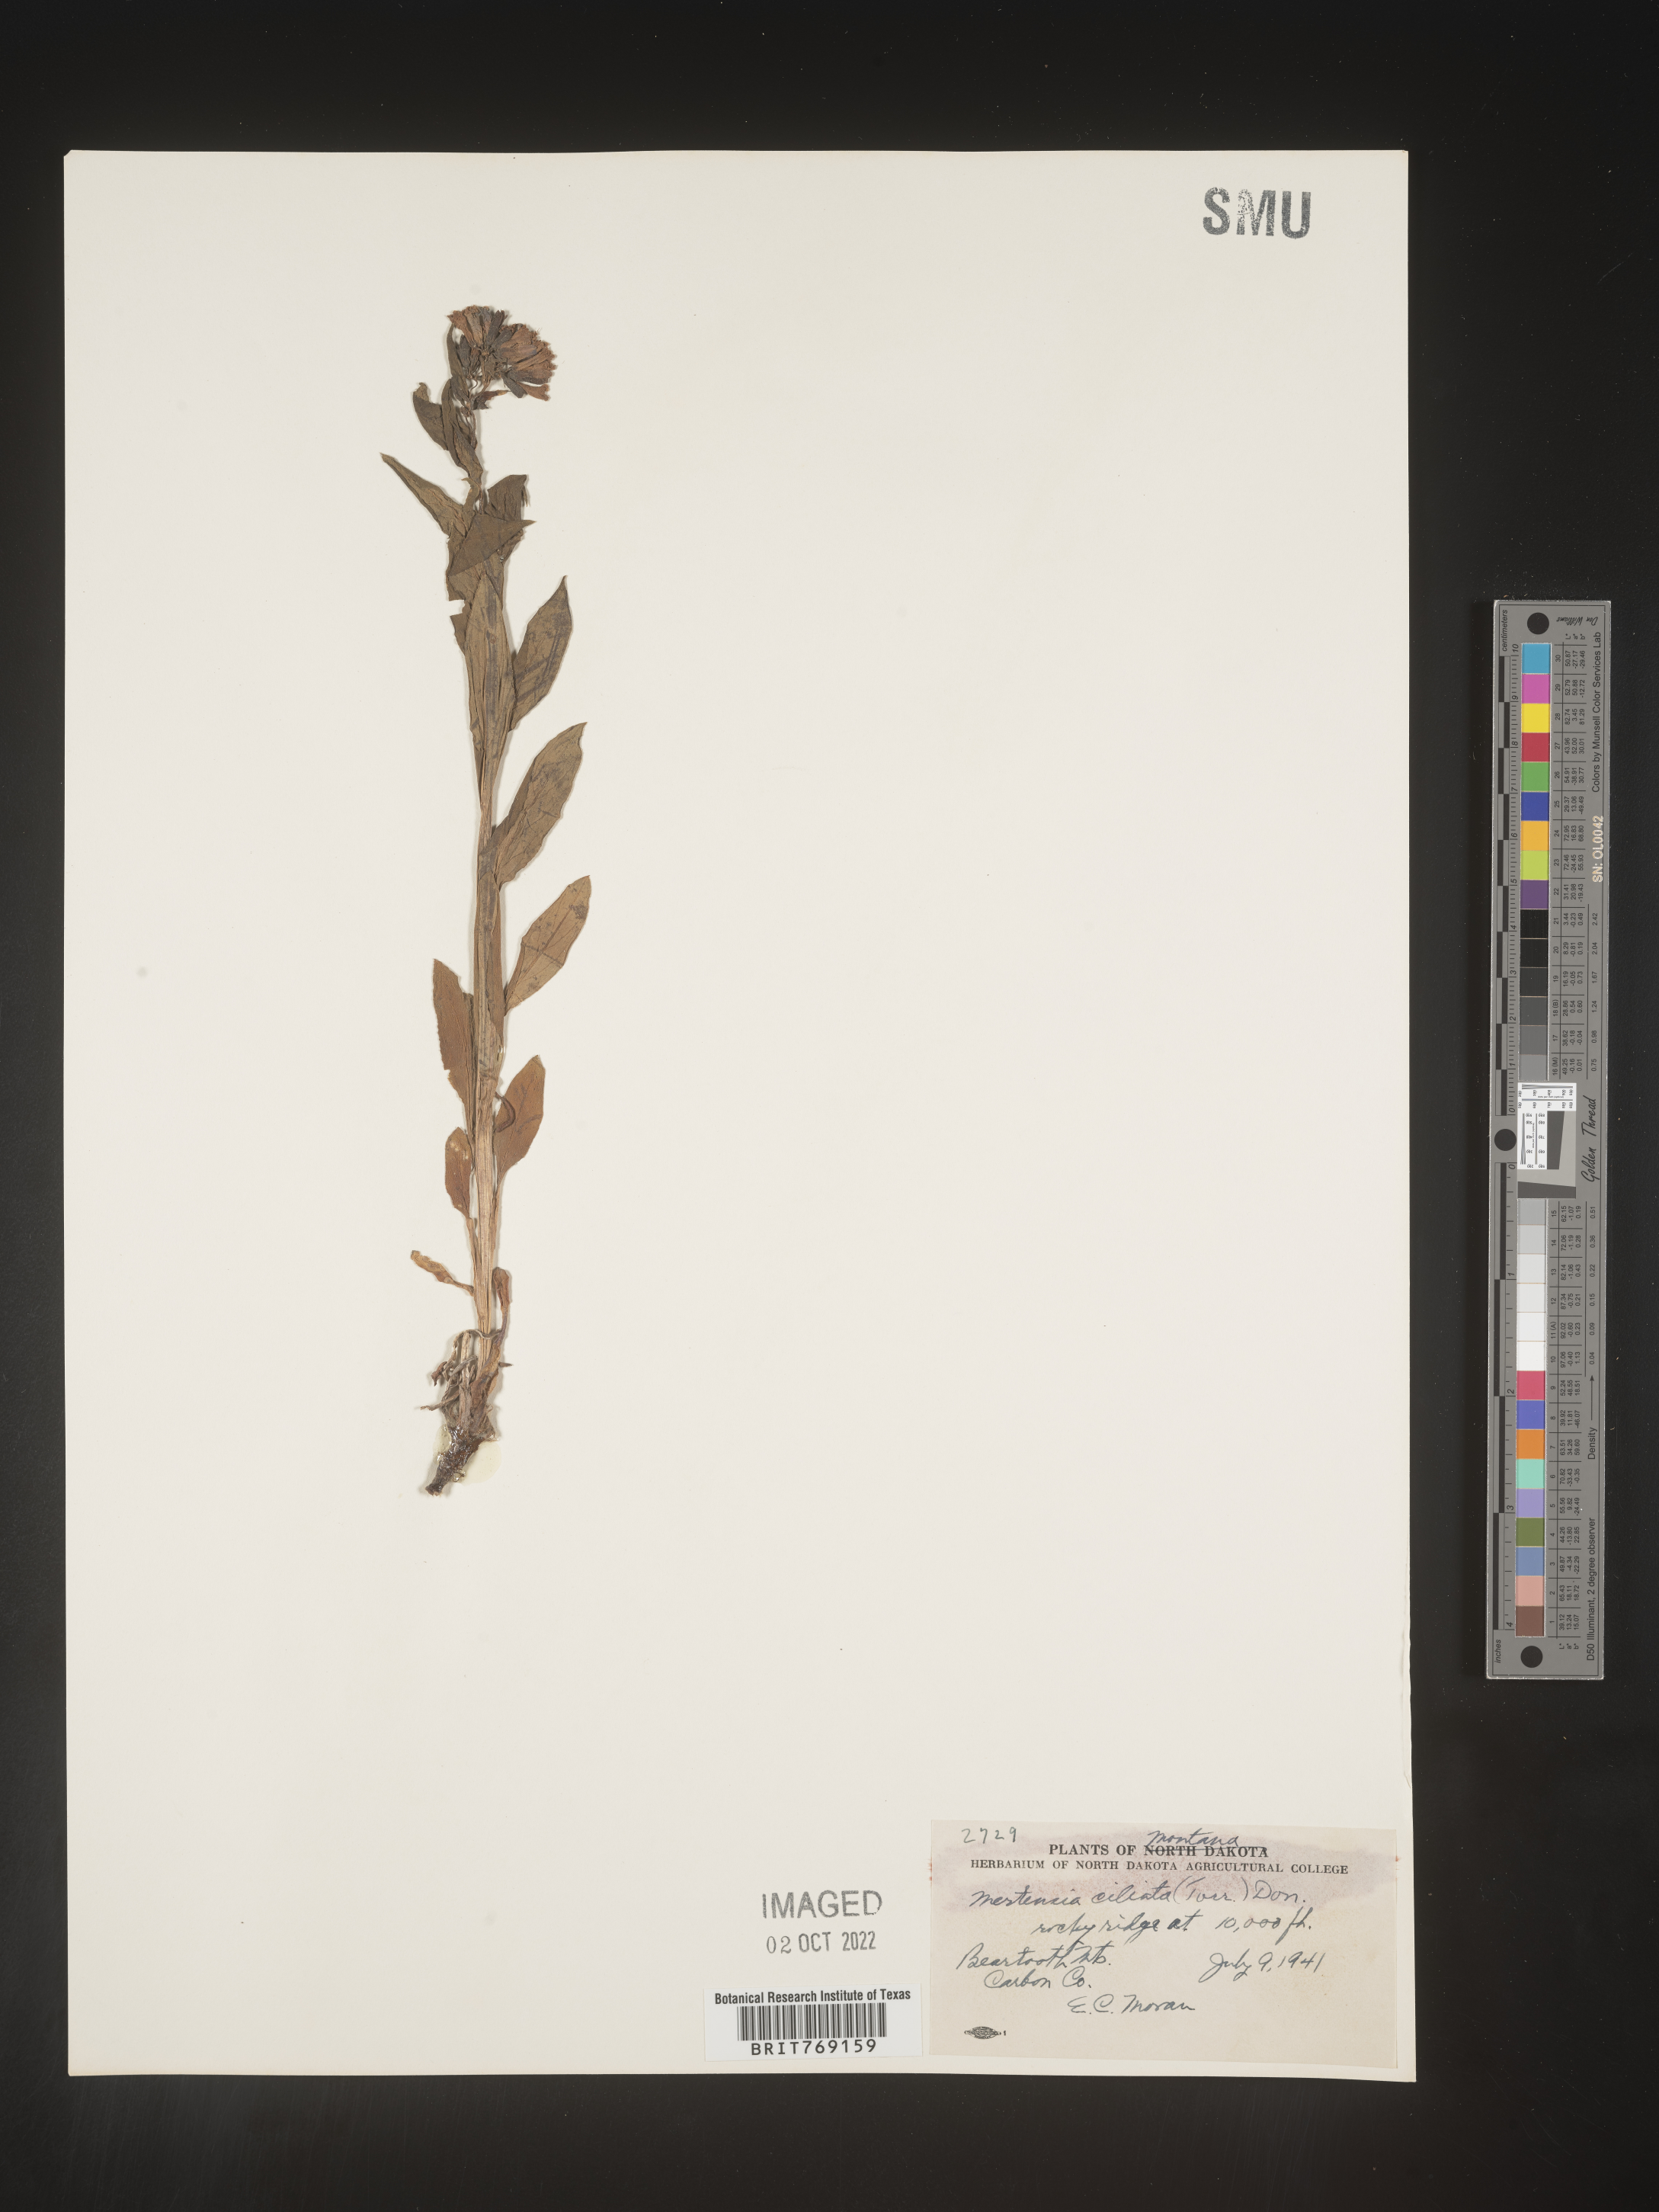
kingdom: Plantae
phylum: Tracheophyta
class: Magnoliopsida
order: Boraginales
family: Boraginaceae
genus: Mertensia
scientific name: Mertensia
